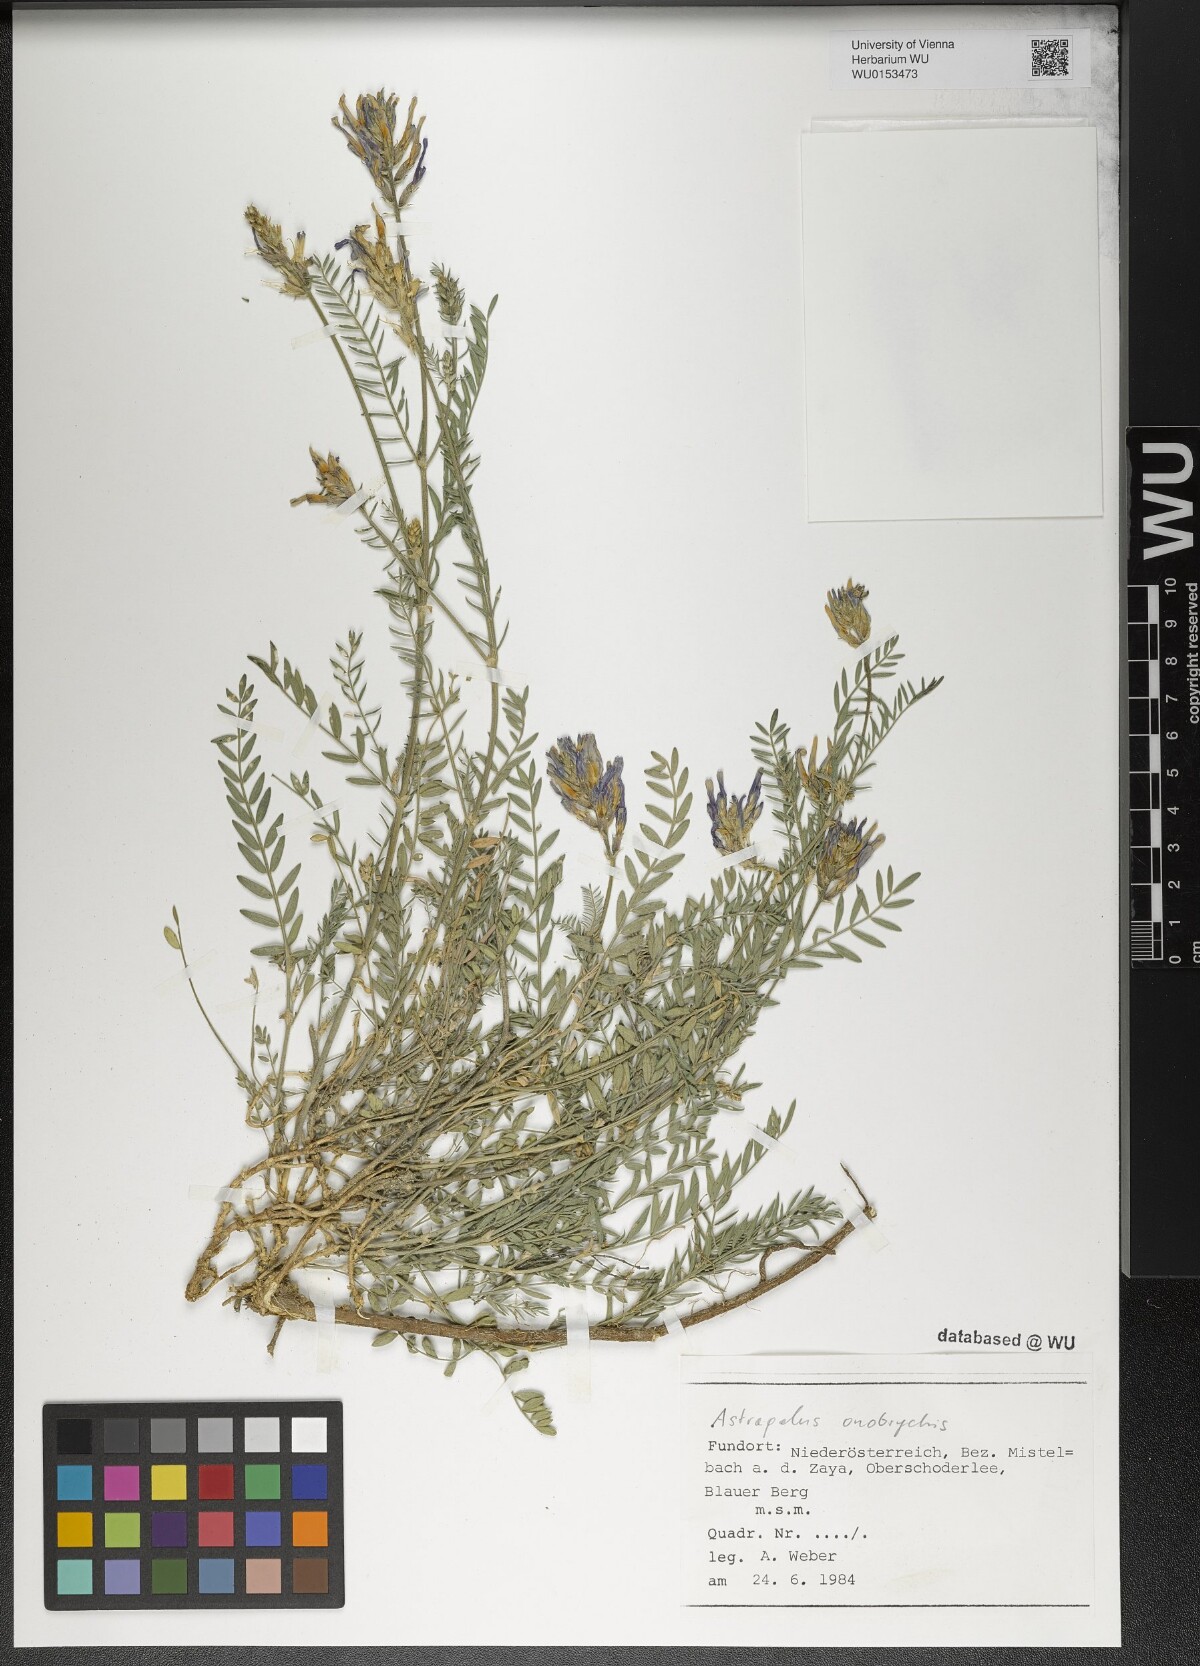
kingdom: Plantae
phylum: Tracheophyta
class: Magnoliopsida
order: Fabales
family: Fabaceae
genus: Astragalus
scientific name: Astragalus onobrychis
